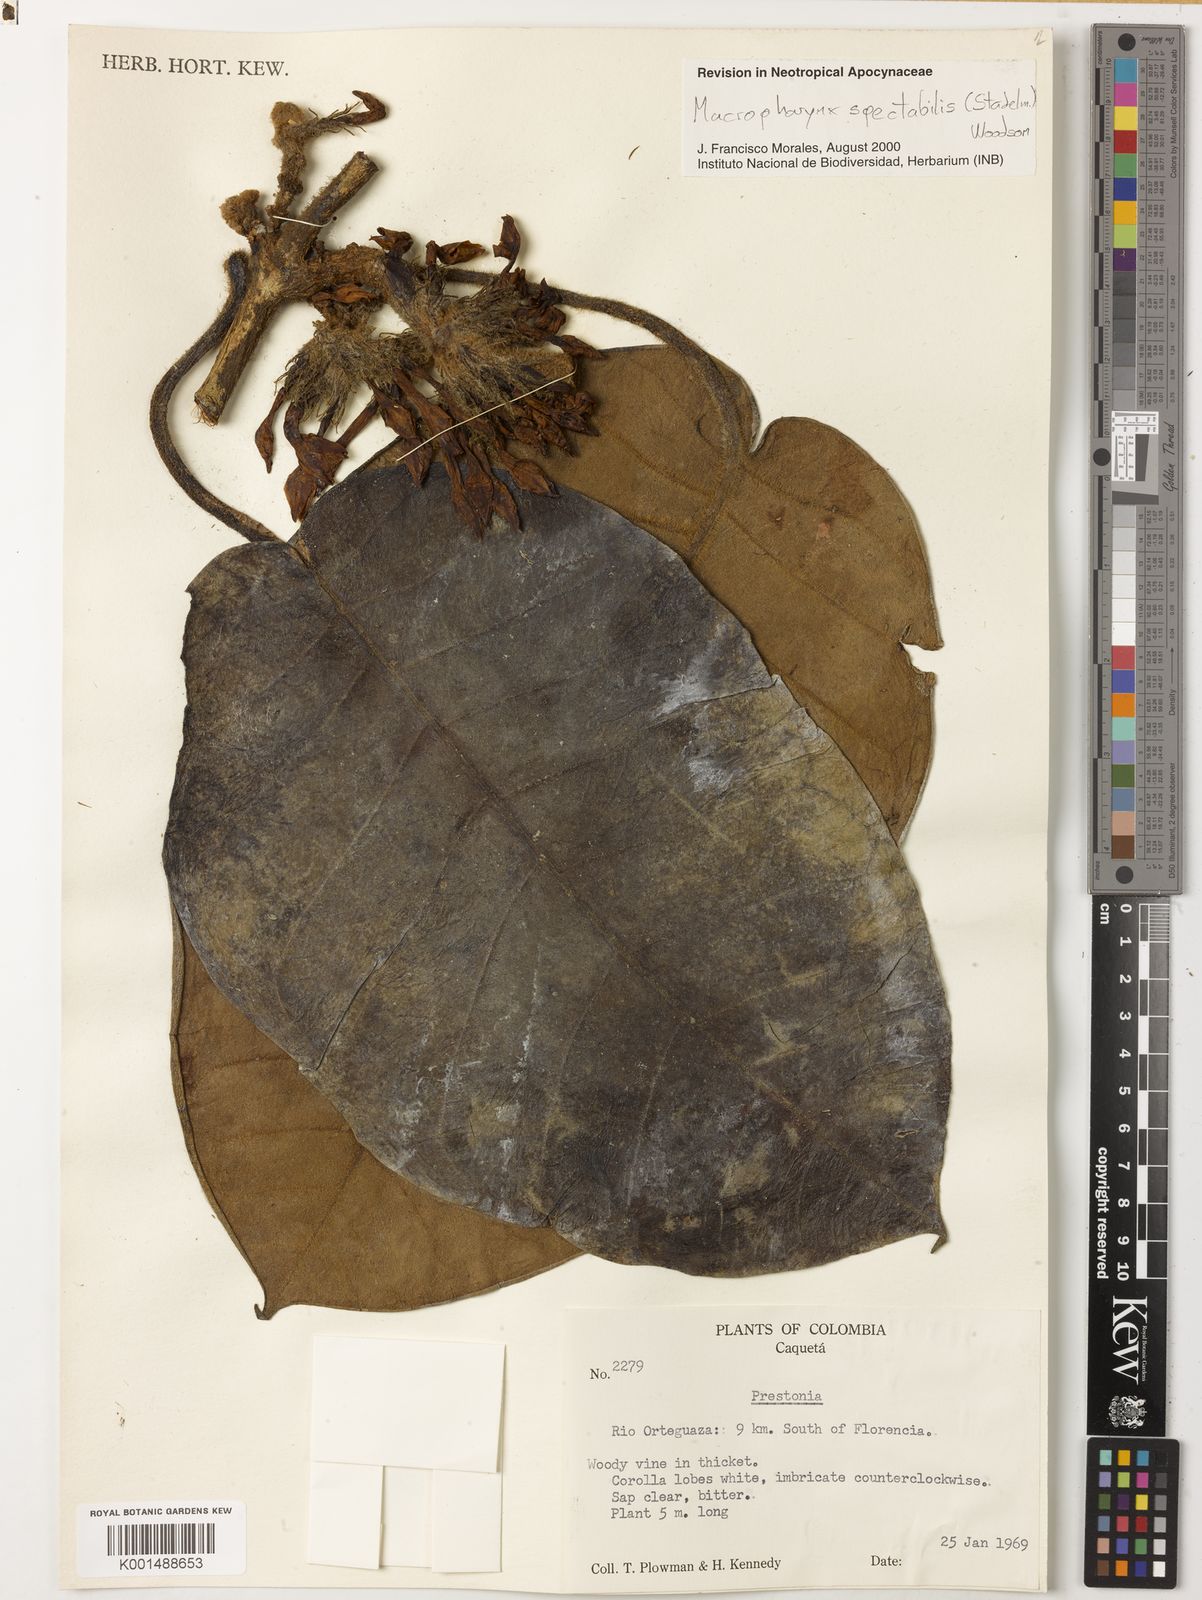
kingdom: Plantae
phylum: Tracheophyta
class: Magnoliopsida
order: Gentianales
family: Apocynaceae
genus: Macropharynx
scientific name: Macropharynx spectabilis
